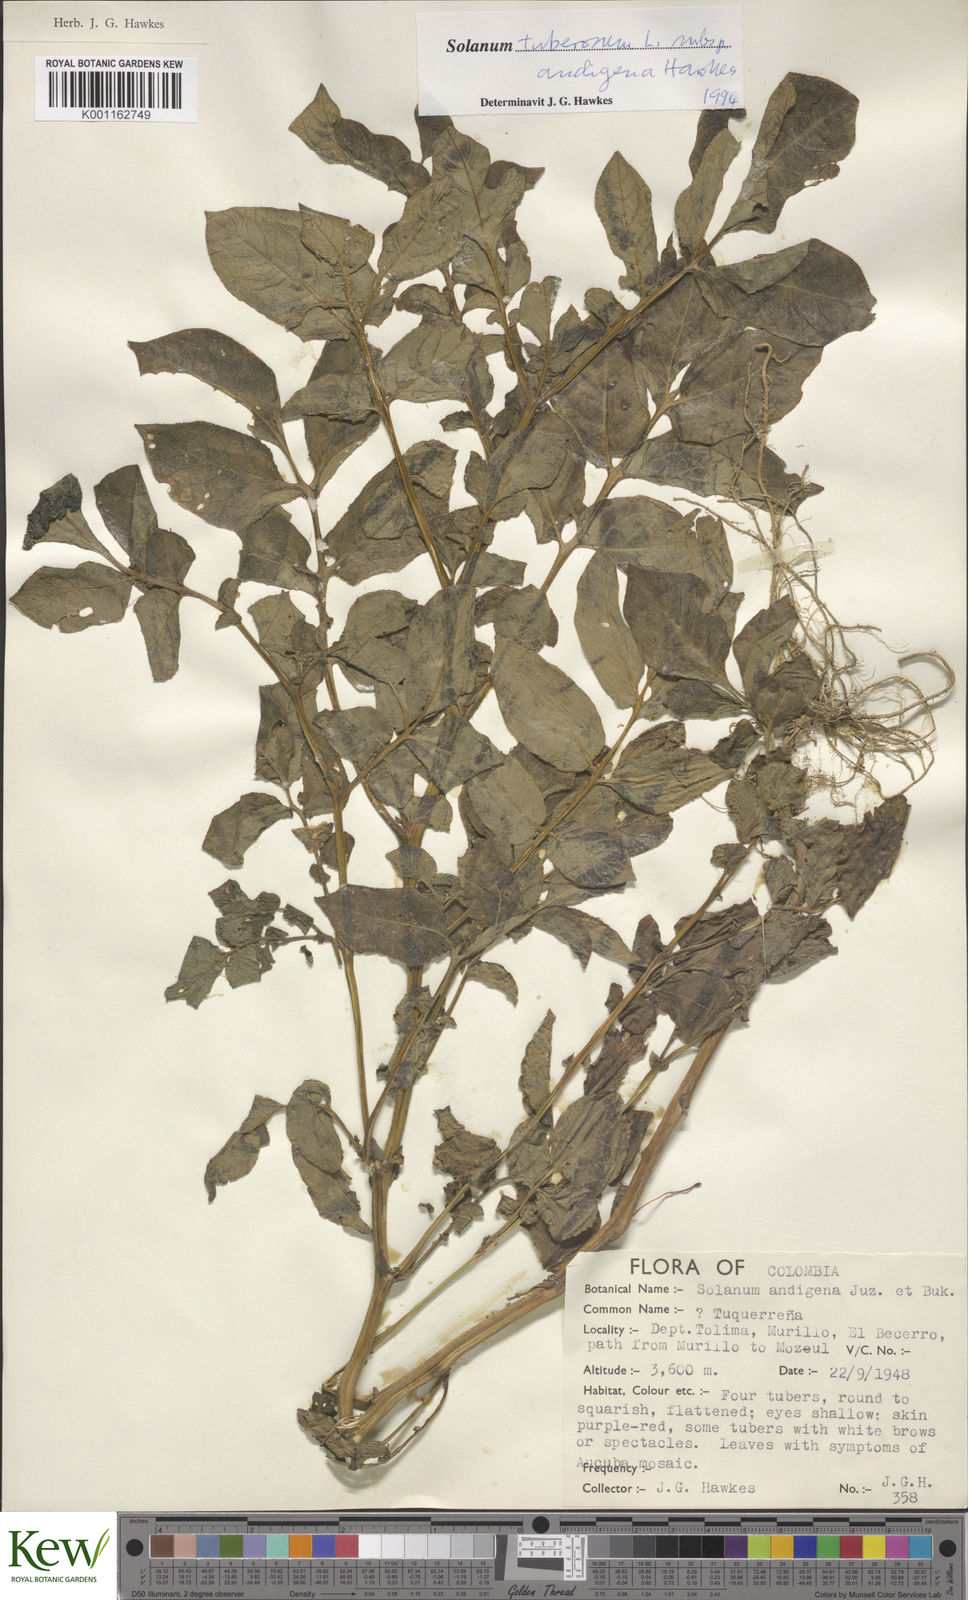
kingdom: Plantae
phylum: Tracheophyta
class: Magnoliopsida
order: Solanales
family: Solanaceae
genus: Solanum
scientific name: Solanum tuberosum
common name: Potato
